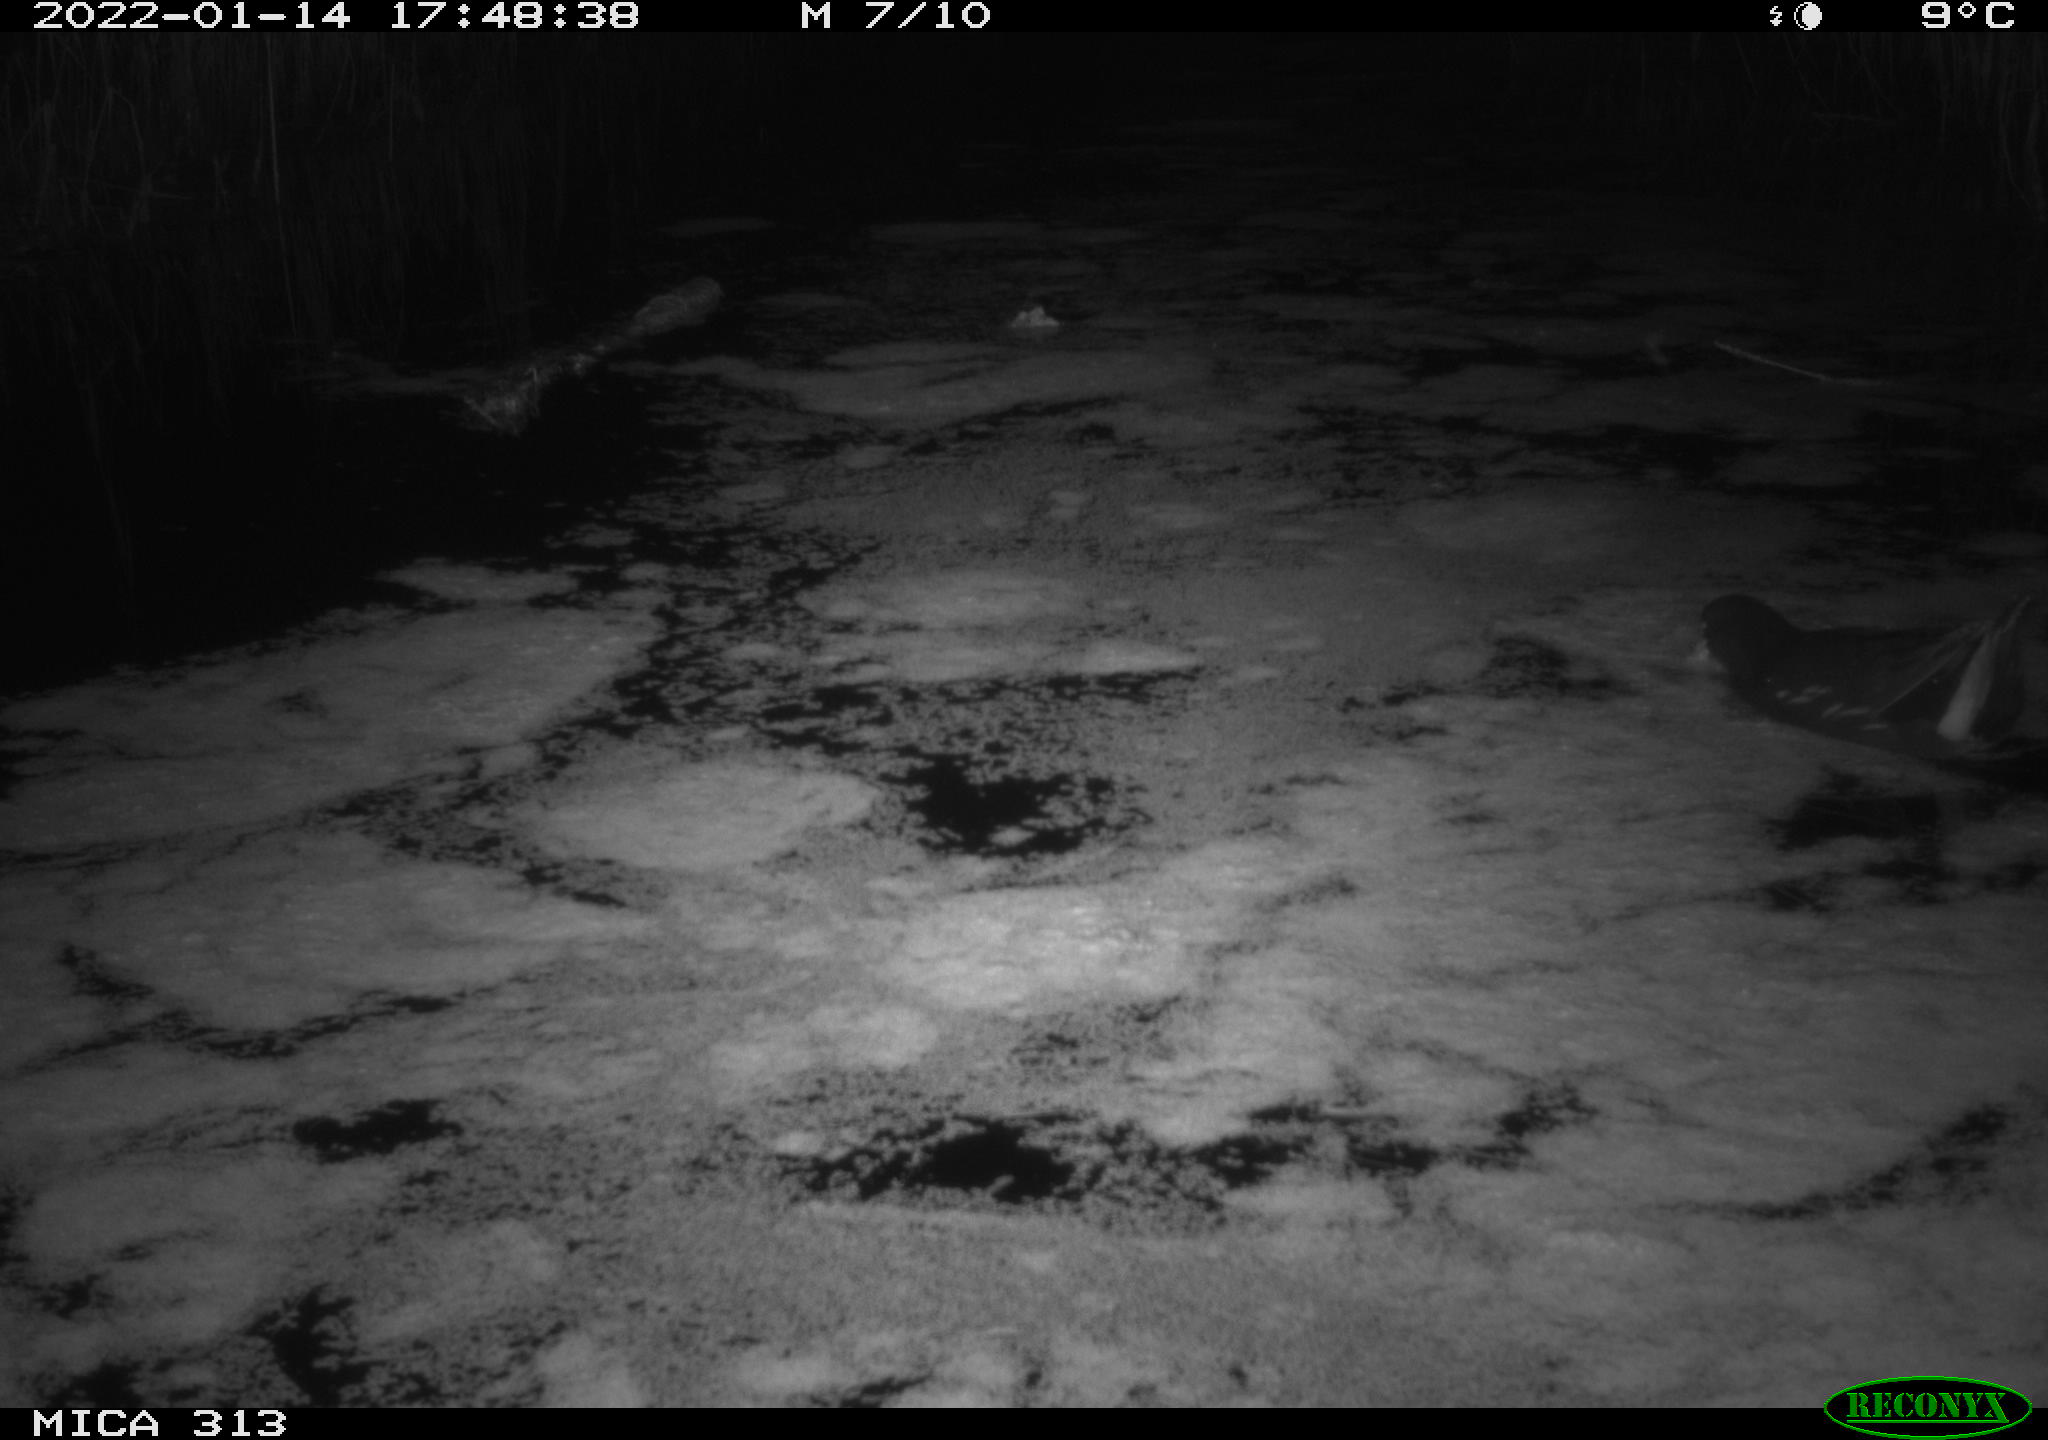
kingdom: Animalia
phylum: Chordata
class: Aves
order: Gruiformes
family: Rallidae
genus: Gallinula
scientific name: Gallinula chloropus
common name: Common moorhen
